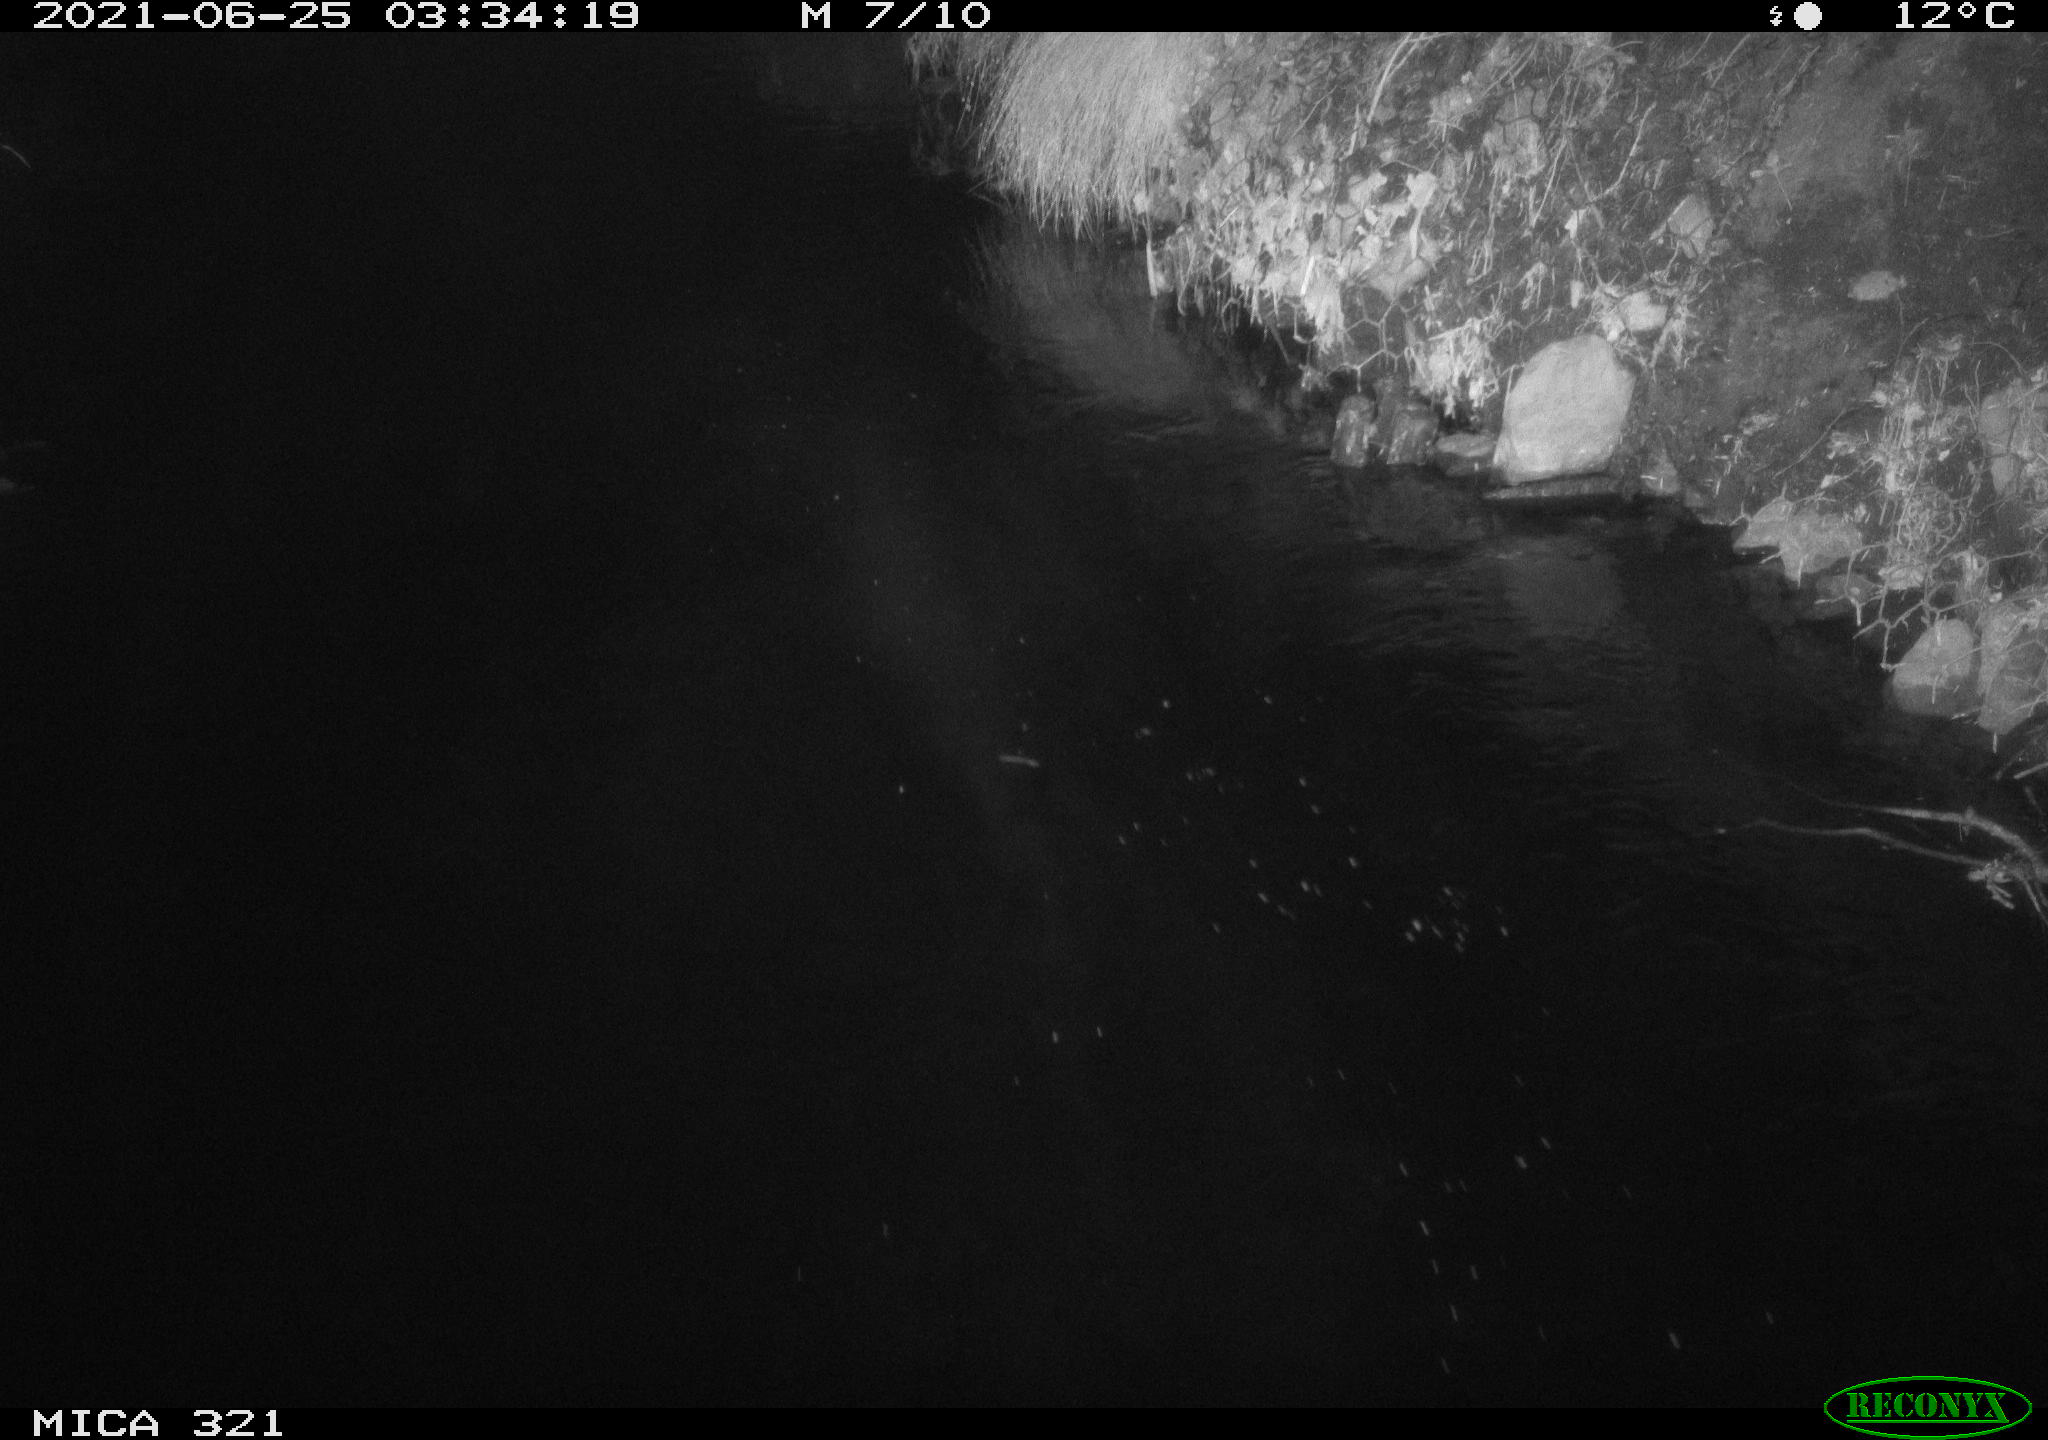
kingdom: Animalia
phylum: Chordata
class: Aves
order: Anseriformes
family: Anatidae
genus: Anas
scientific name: Anas platyrhynchos
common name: Mallard
